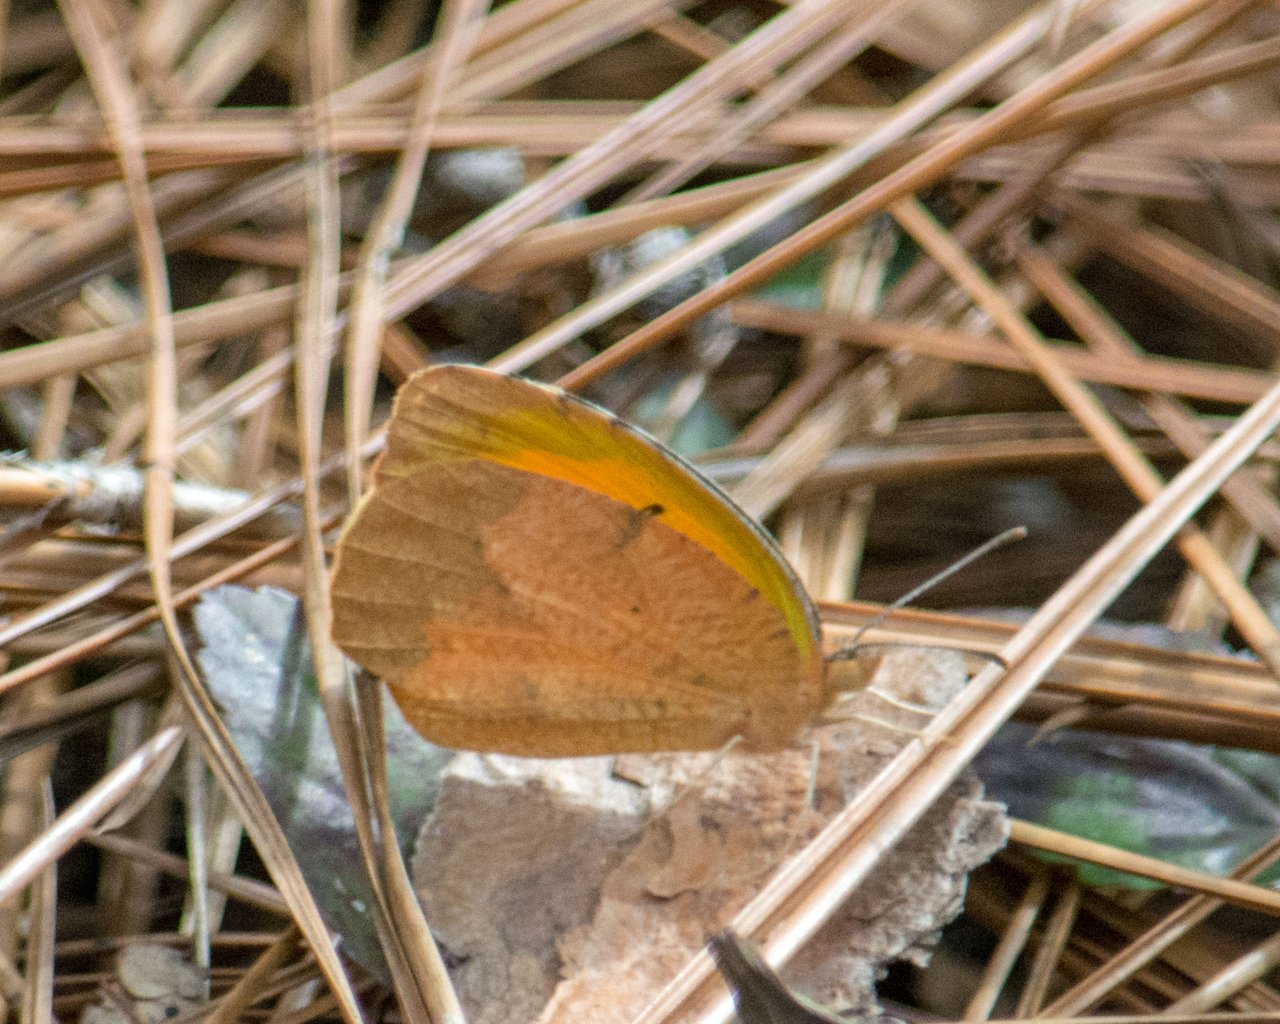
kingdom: Animalia
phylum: Arthropoda
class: Insecta
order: Lepidoptera
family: Pieridae
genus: Abaeis
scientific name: Abaeis nicippe
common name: Sleepy Orange
